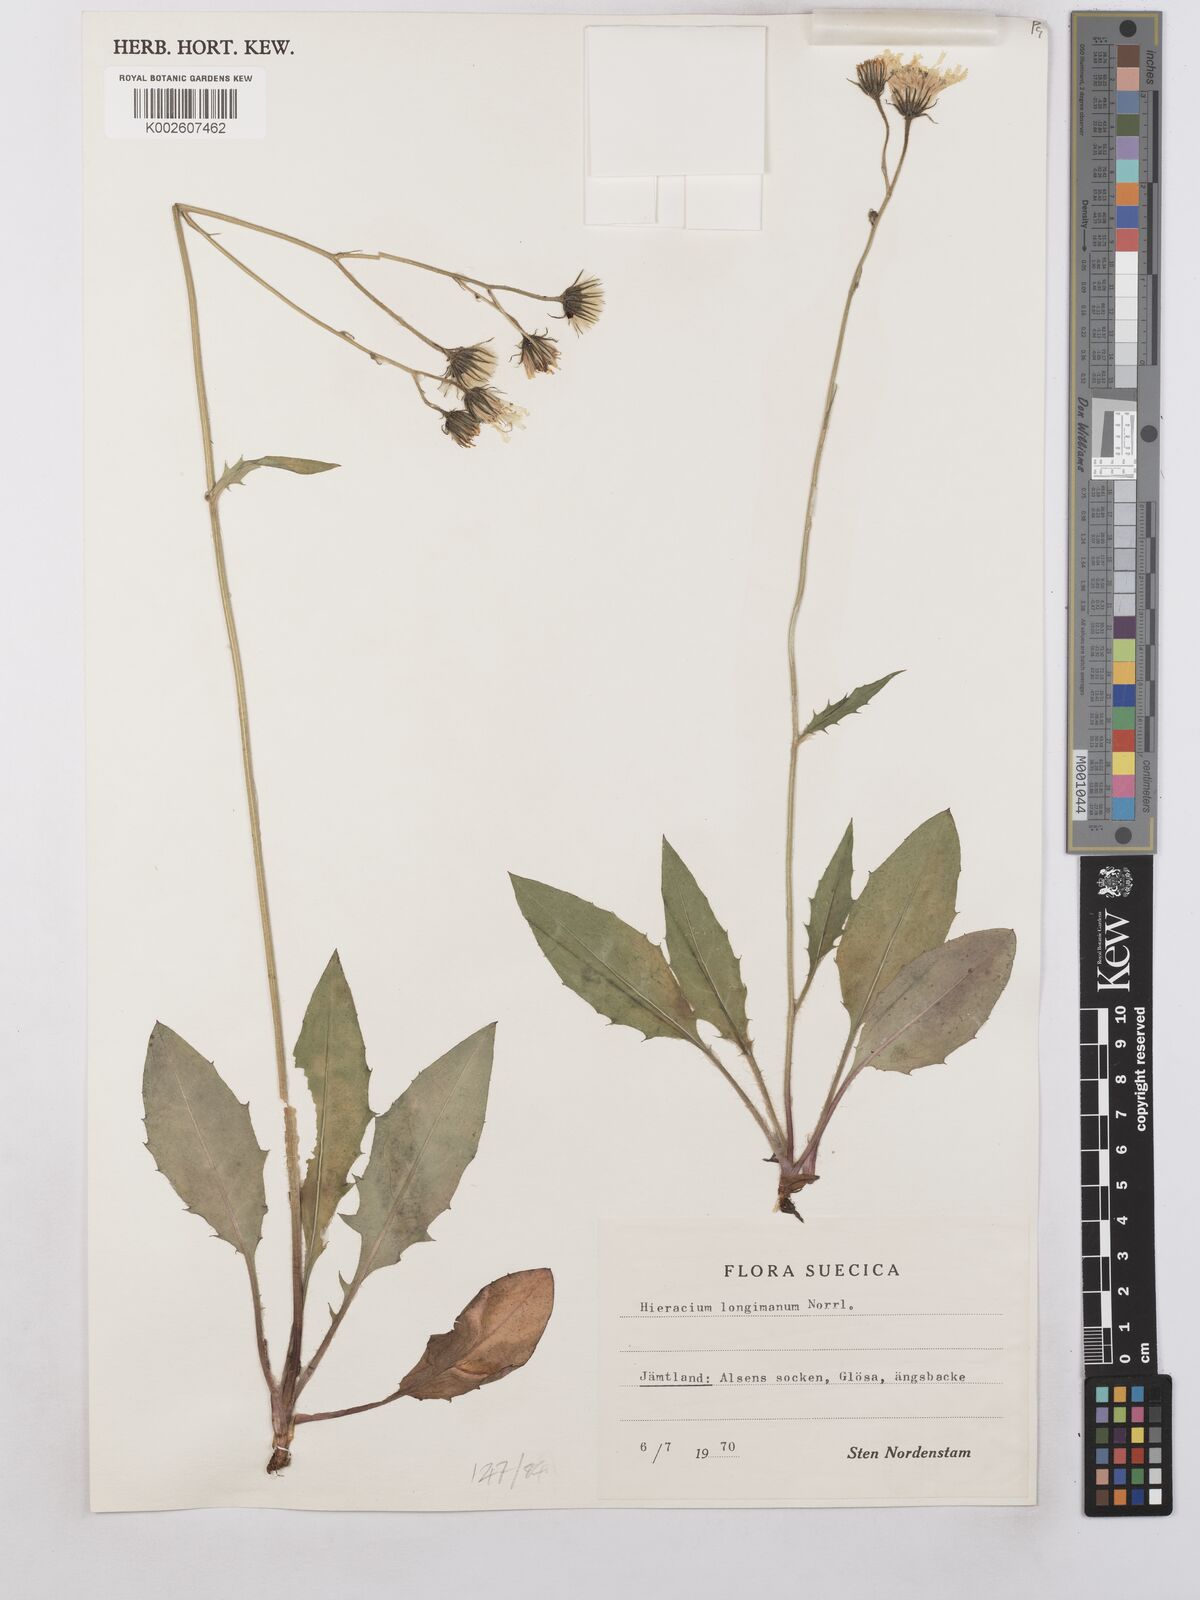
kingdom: Plantae
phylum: Tracheophyta
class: Magnoliopsida
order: Asterales
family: Asteraceae
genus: Hieracium
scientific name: Hieracium caesium
